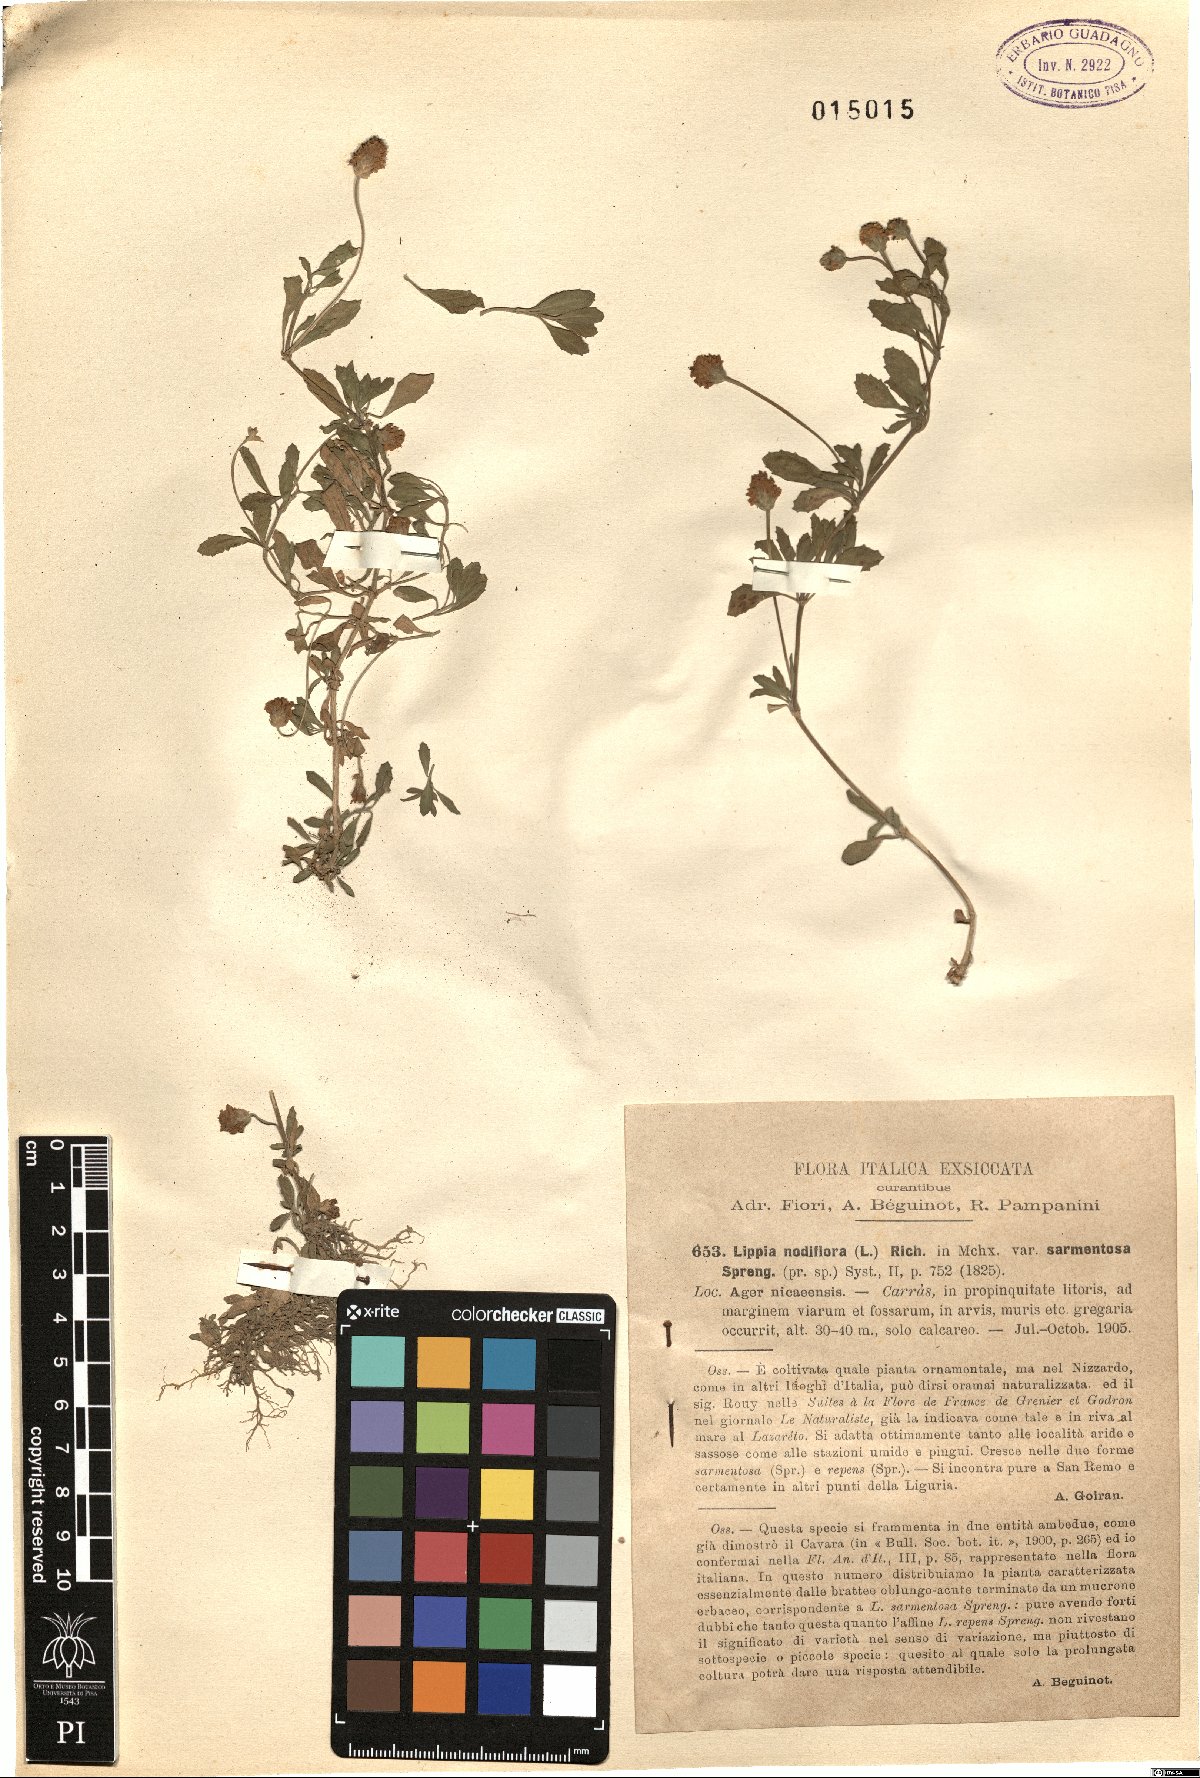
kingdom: Plantae
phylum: Tracheophyta
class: Magnoliopsida
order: Lamiales
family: Verbenaceae
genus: Phyla
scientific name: Phyla nodiflora
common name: Frogfruit
